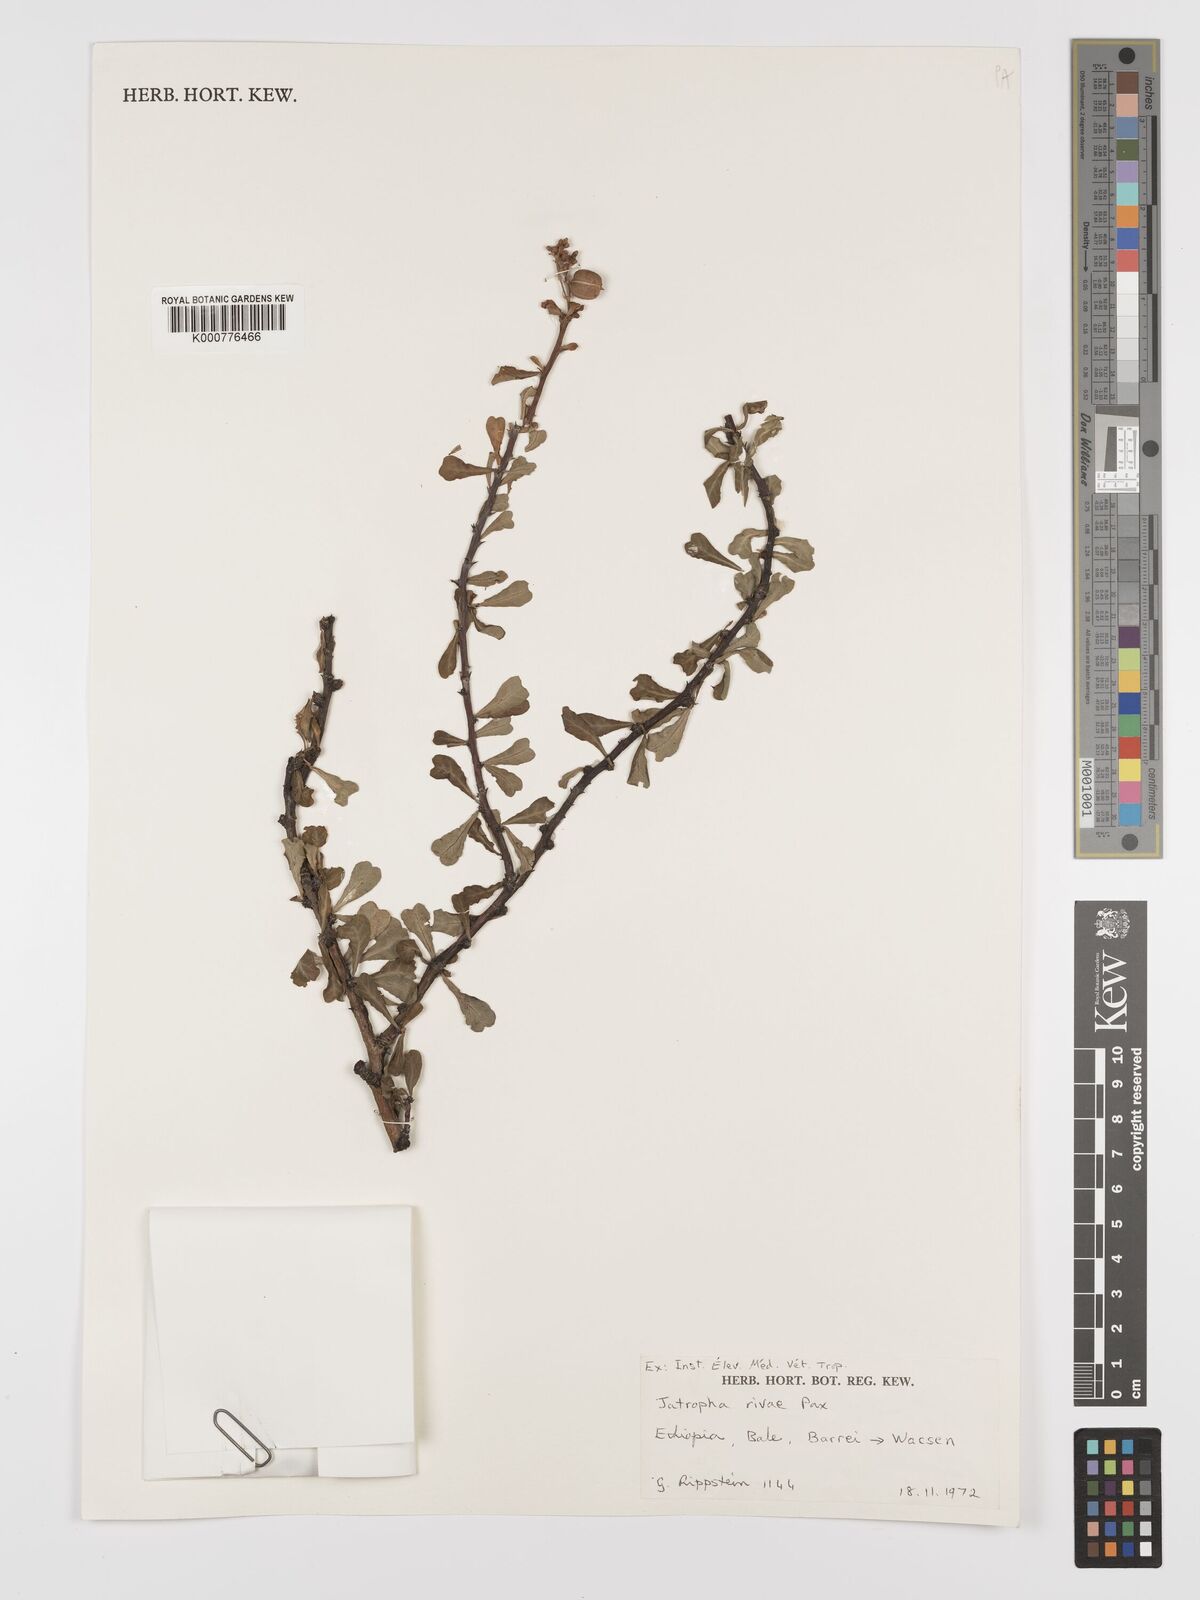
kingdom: Plantae
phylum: Tracheophyta
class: Magnoliopsida
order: Malpighiales
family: Euphorbiaceae
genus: Jatropha
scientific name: Jatropha rivae
